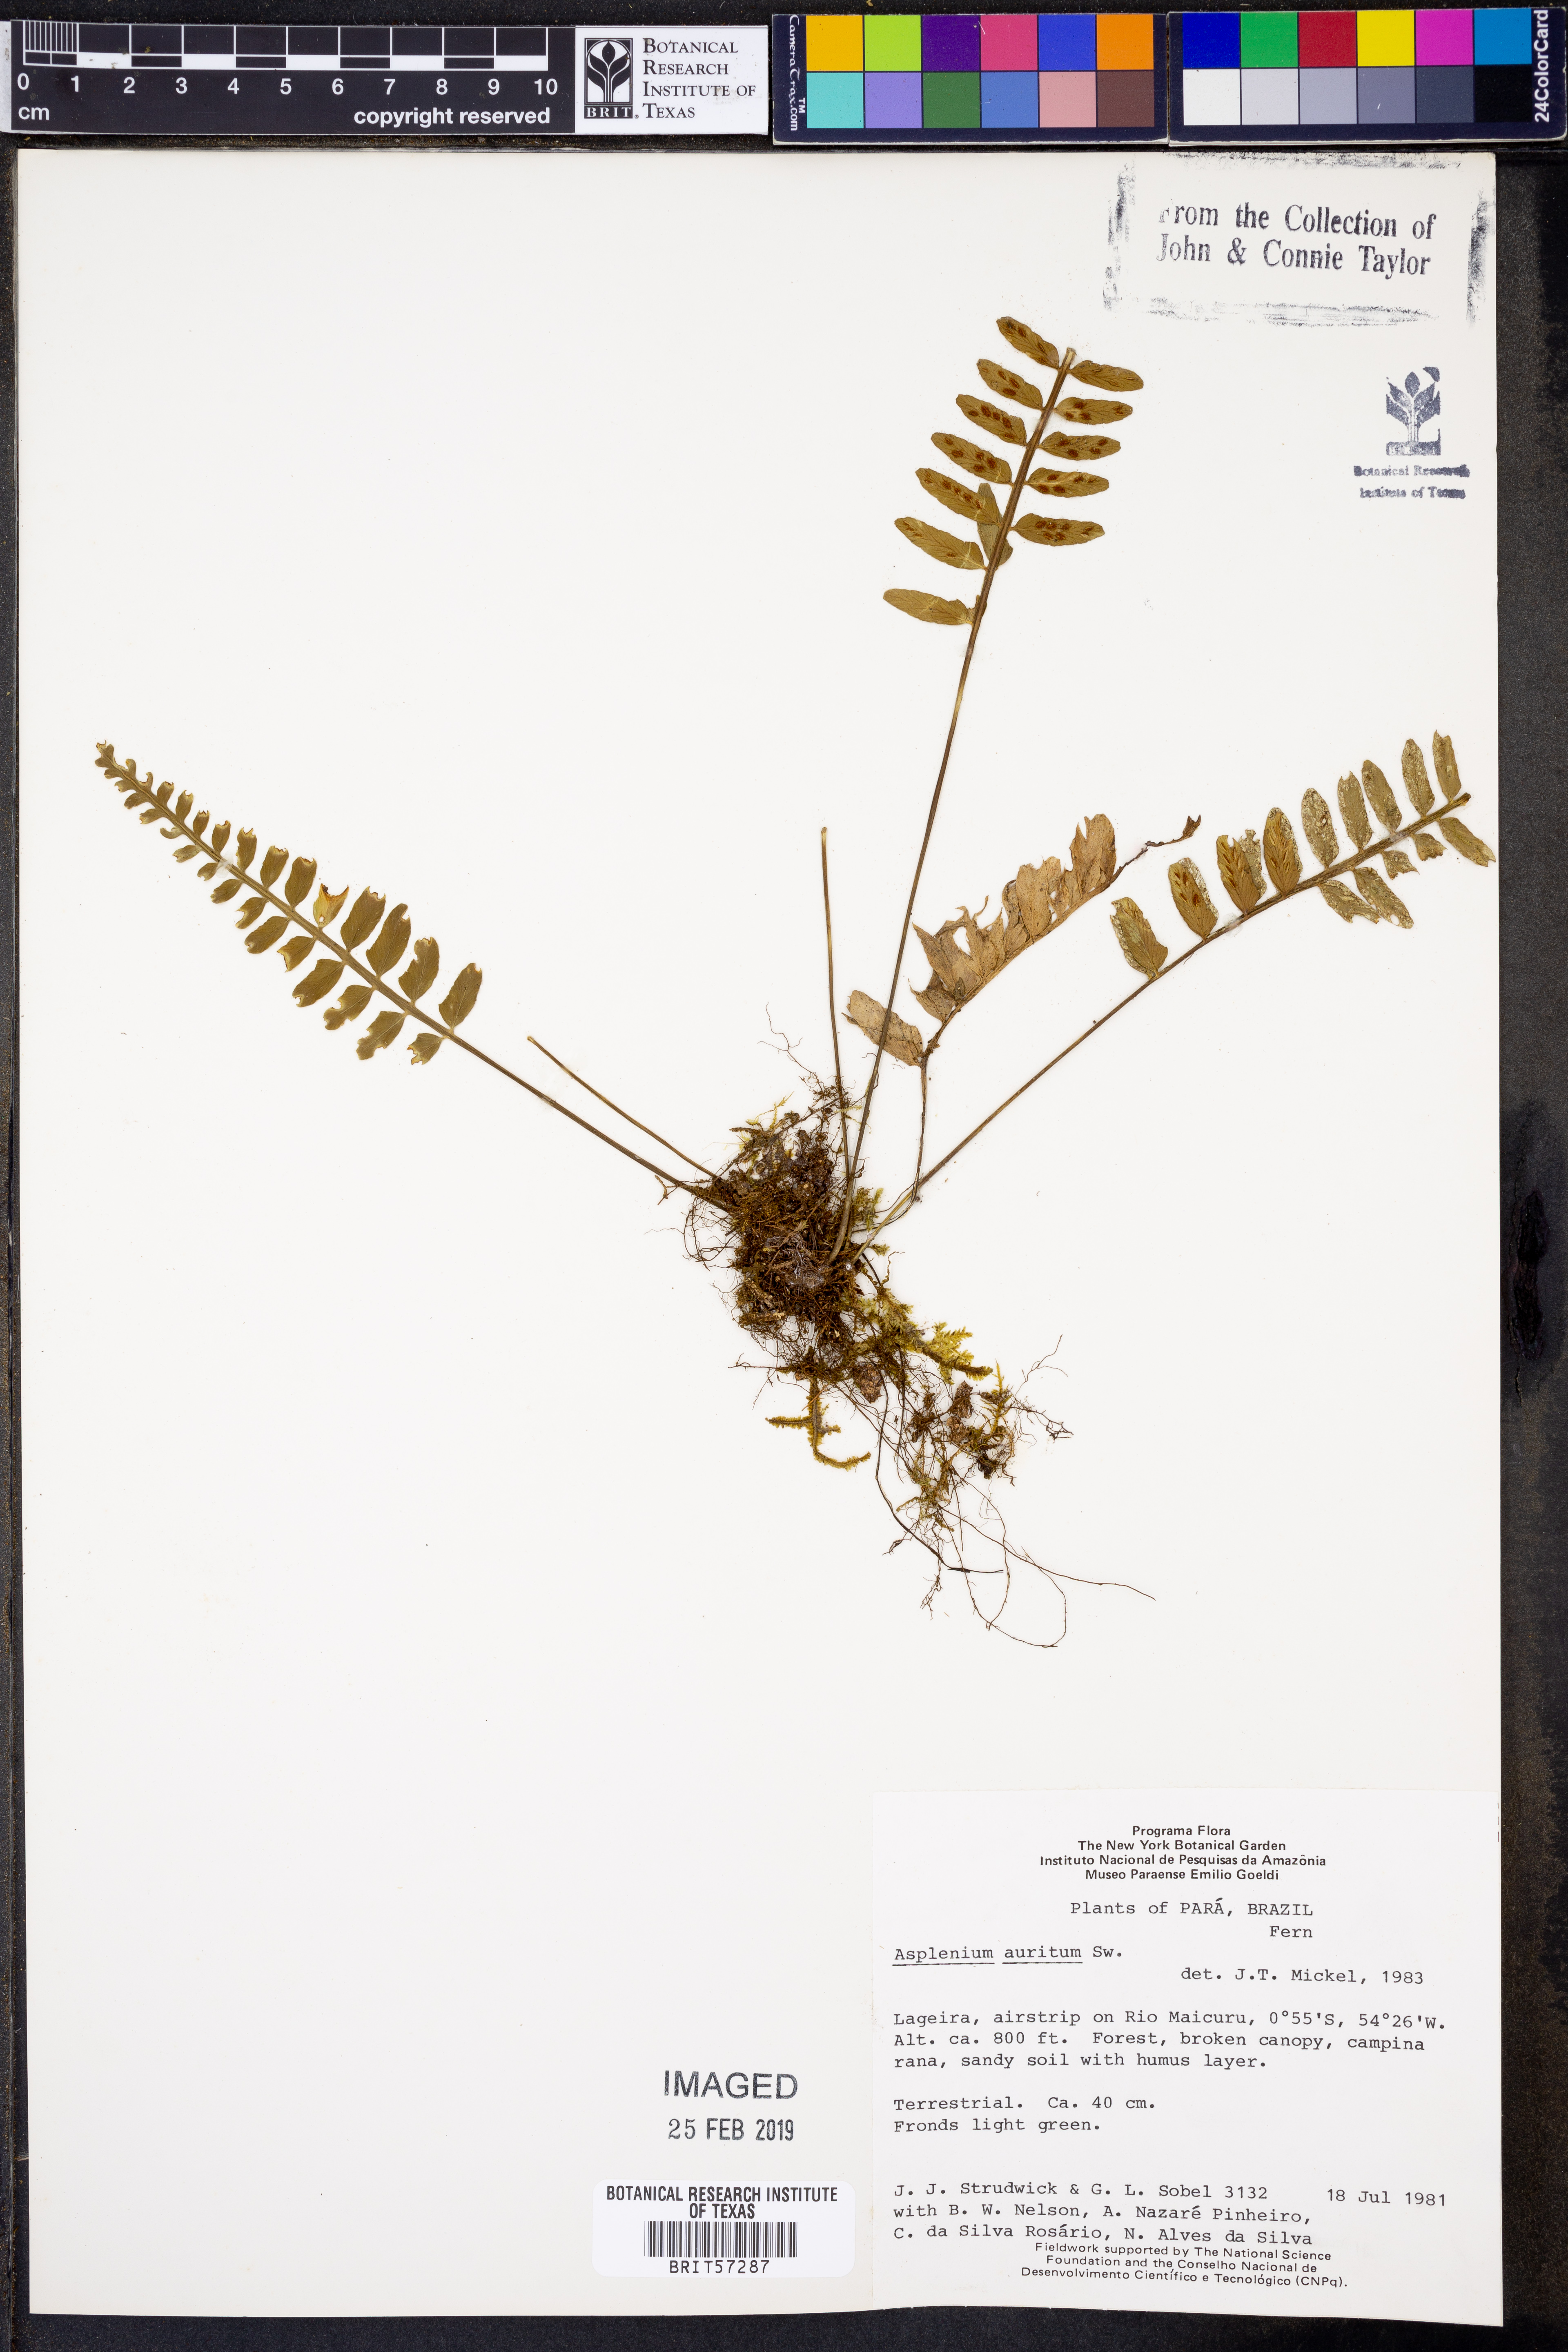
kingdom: Plantae
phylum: Tracheophyta
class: Polypodiopsida
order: Polypodiales
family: Aspleniaceae
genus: Asplenium
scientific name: Asplenium bipartitum
